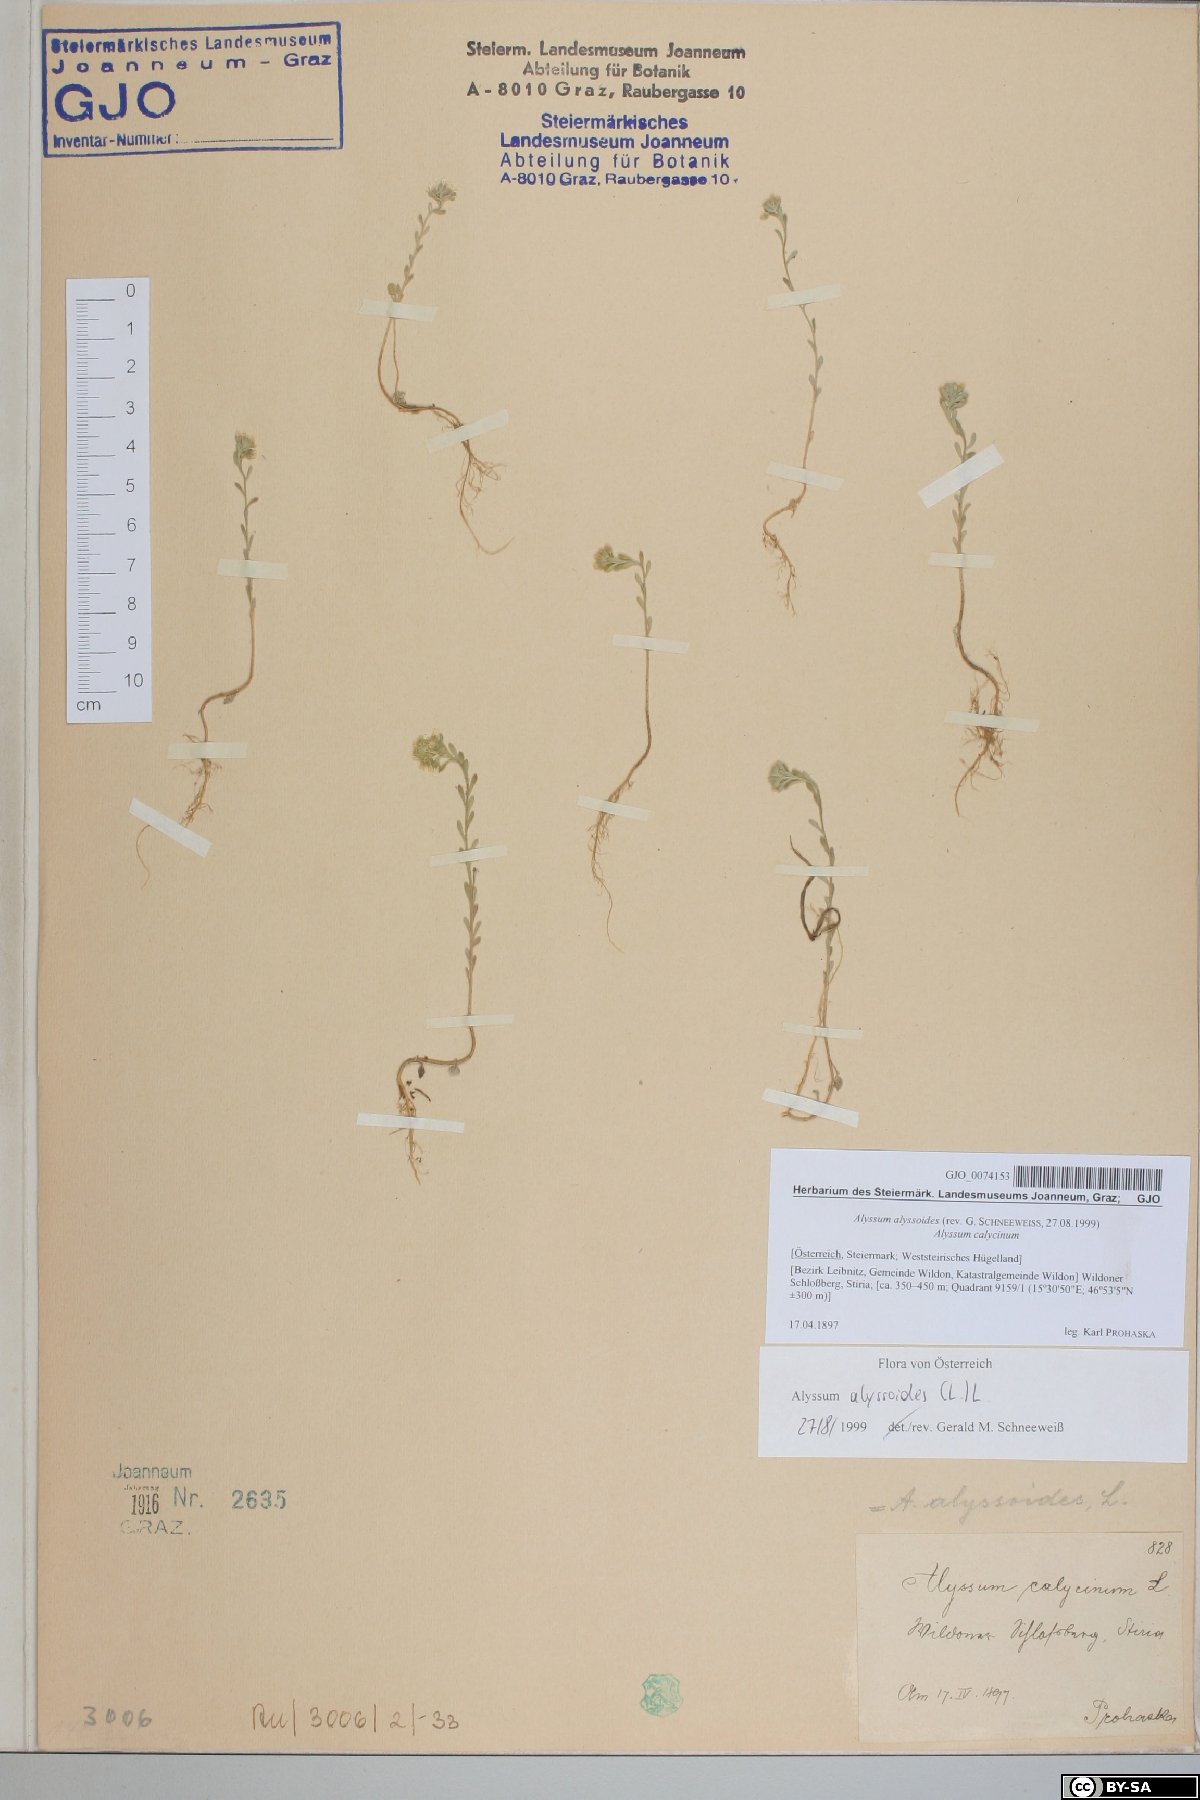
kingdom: Plantae
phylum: Tracheophyta
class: Magnoliopsida
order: Brassicales
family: Brassicaceae
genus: Alyssum
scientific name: Alyssum alyssoides
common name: Small alison
